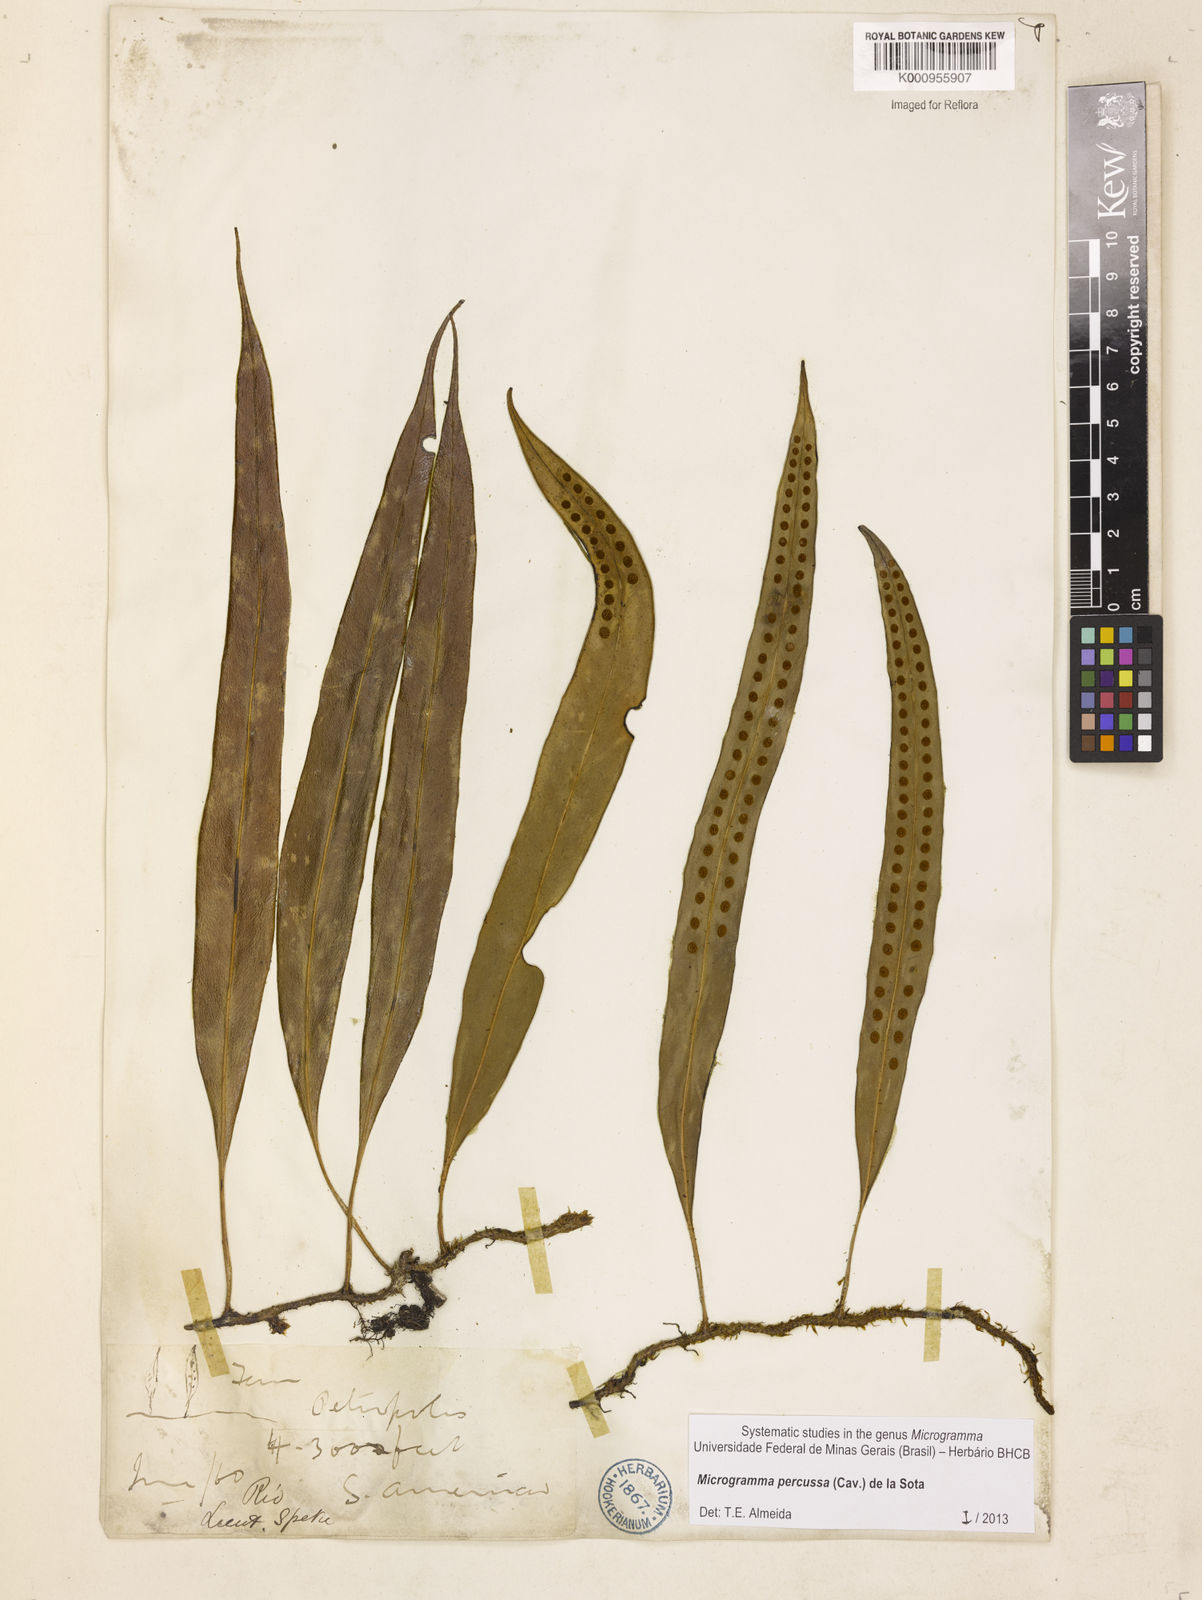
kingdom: Plantae
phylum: Tracheophyta
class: Polypodiopsida
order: Polypodiales
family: Polypodiaceae
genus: Microgramma
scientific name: Microgramma percussa
